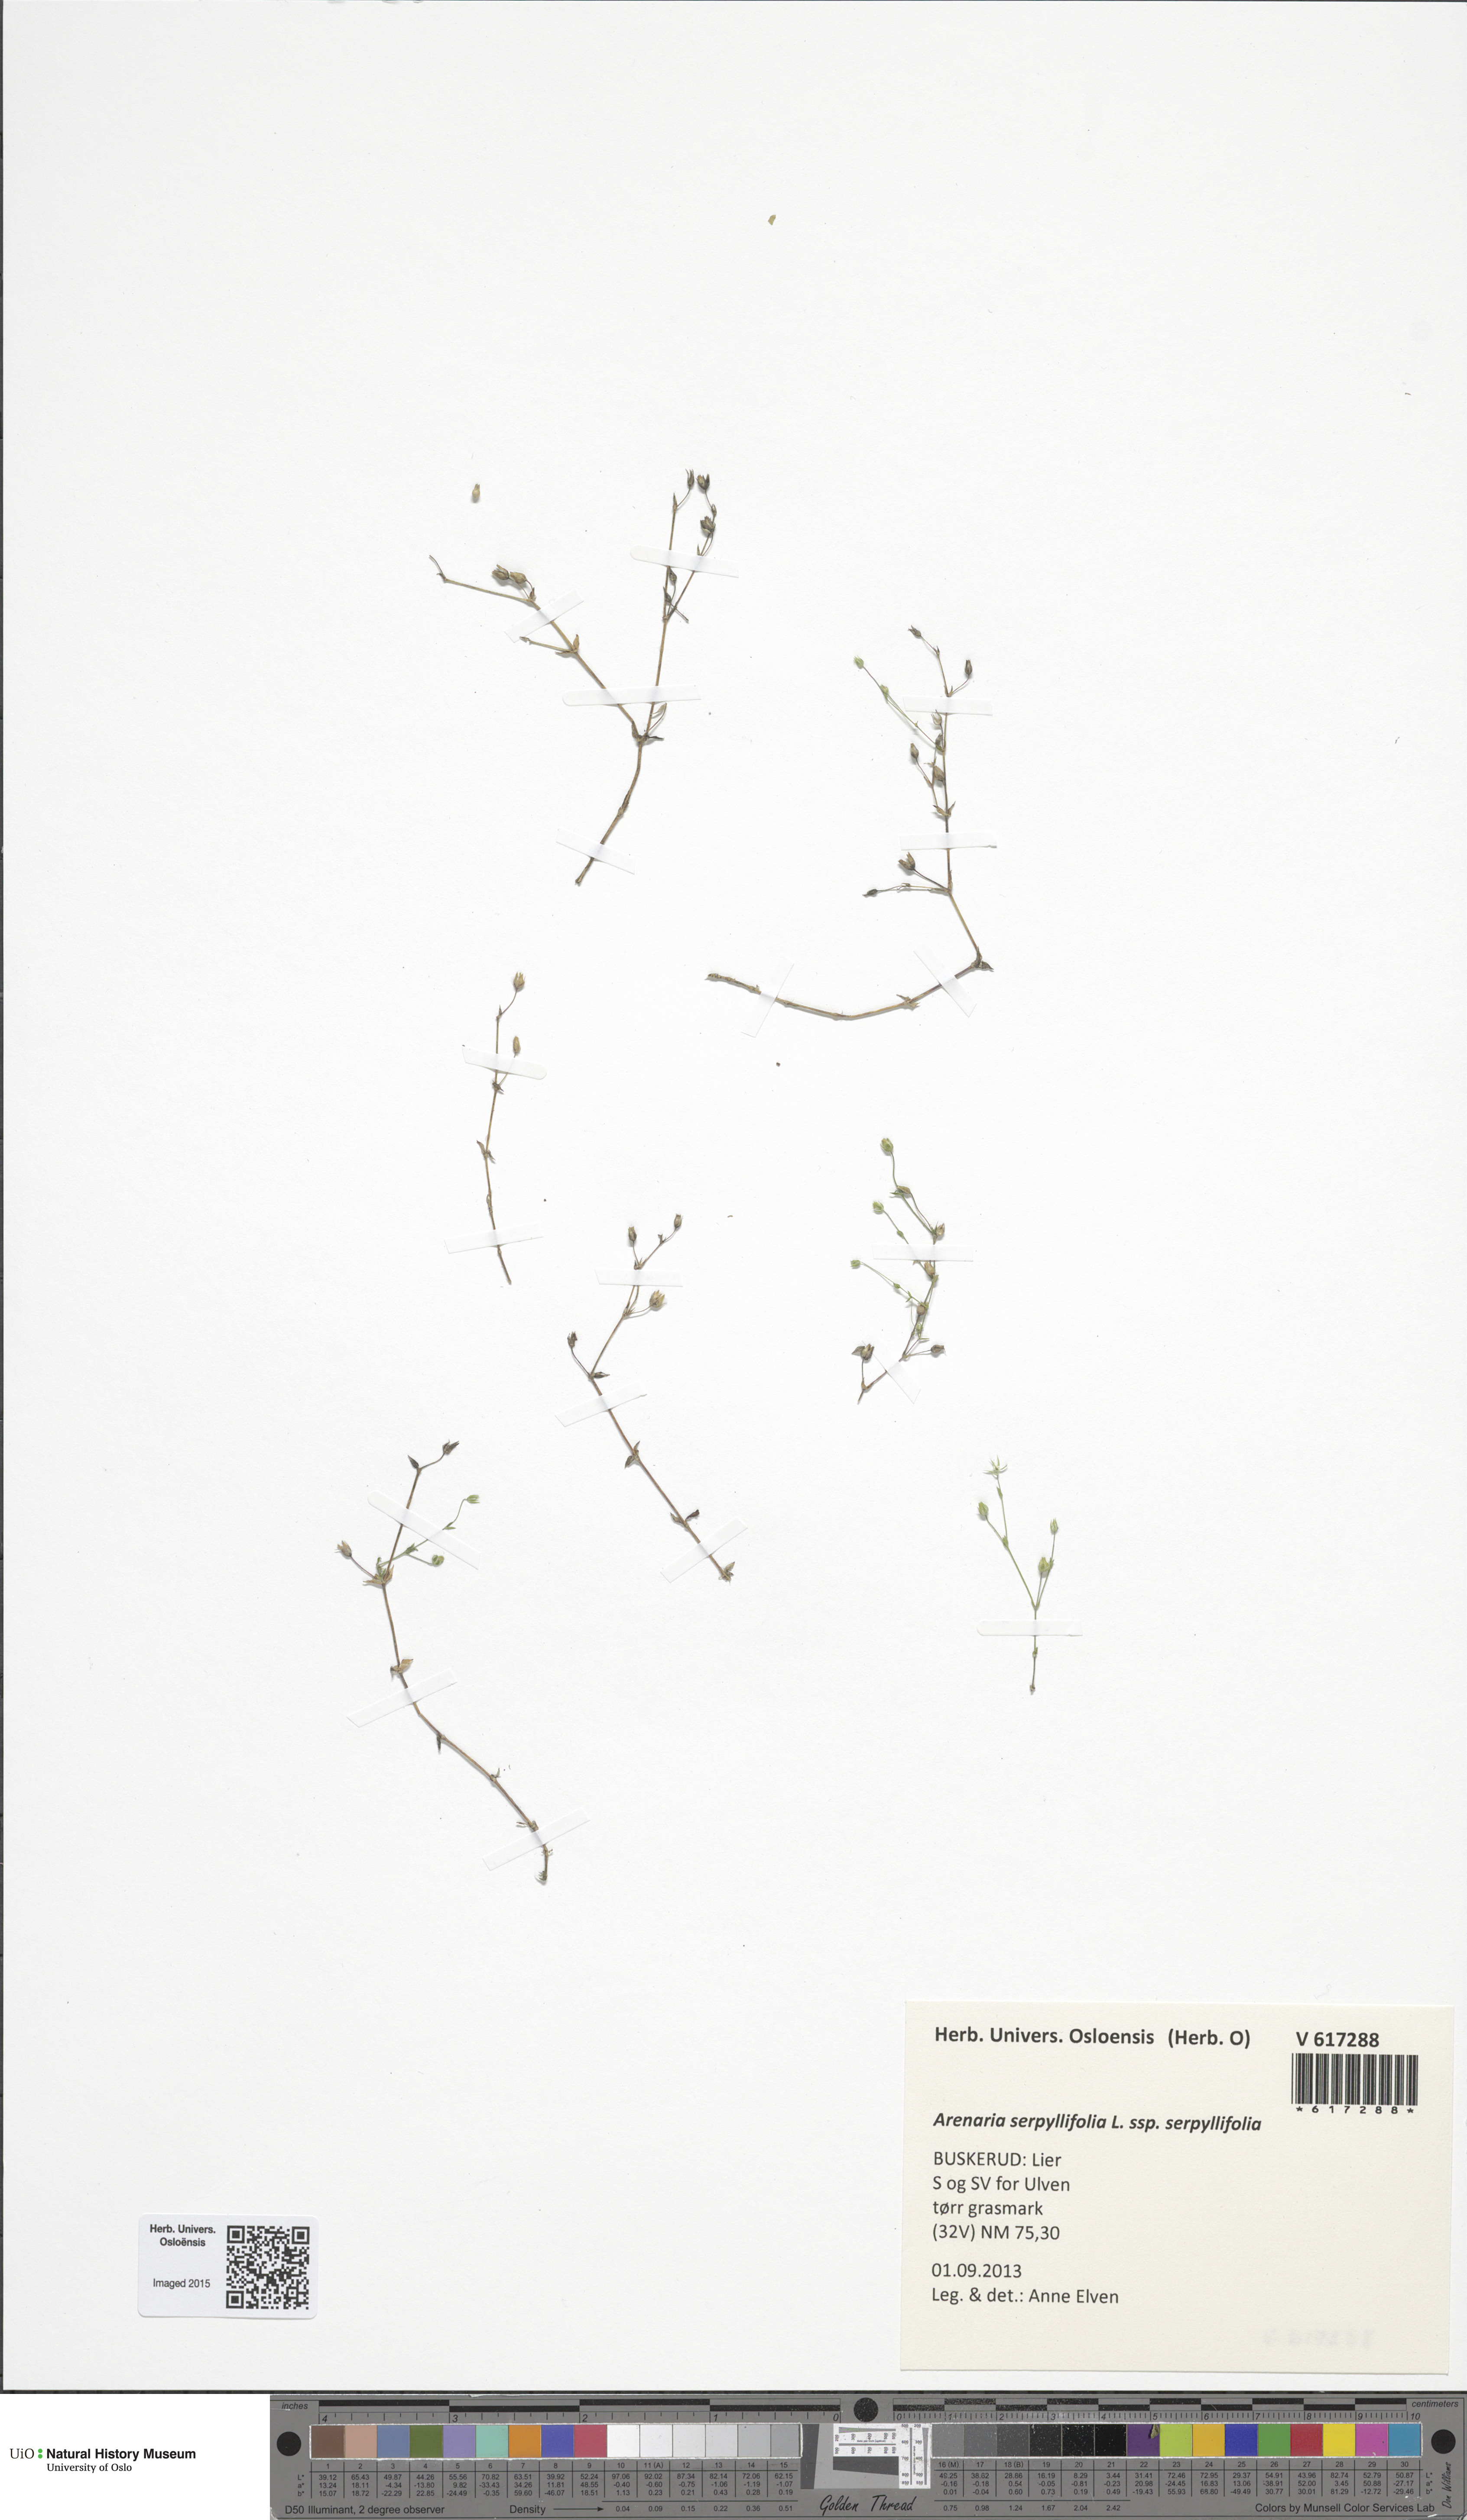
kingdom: Plantae
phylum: Tracheophyta
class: Magnoliopsida
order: Caryophyllales
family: Caryophyllaceae
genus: Arenaria
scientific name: Arenaria serpyllifolia
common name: Thyme-leaved sandwort
